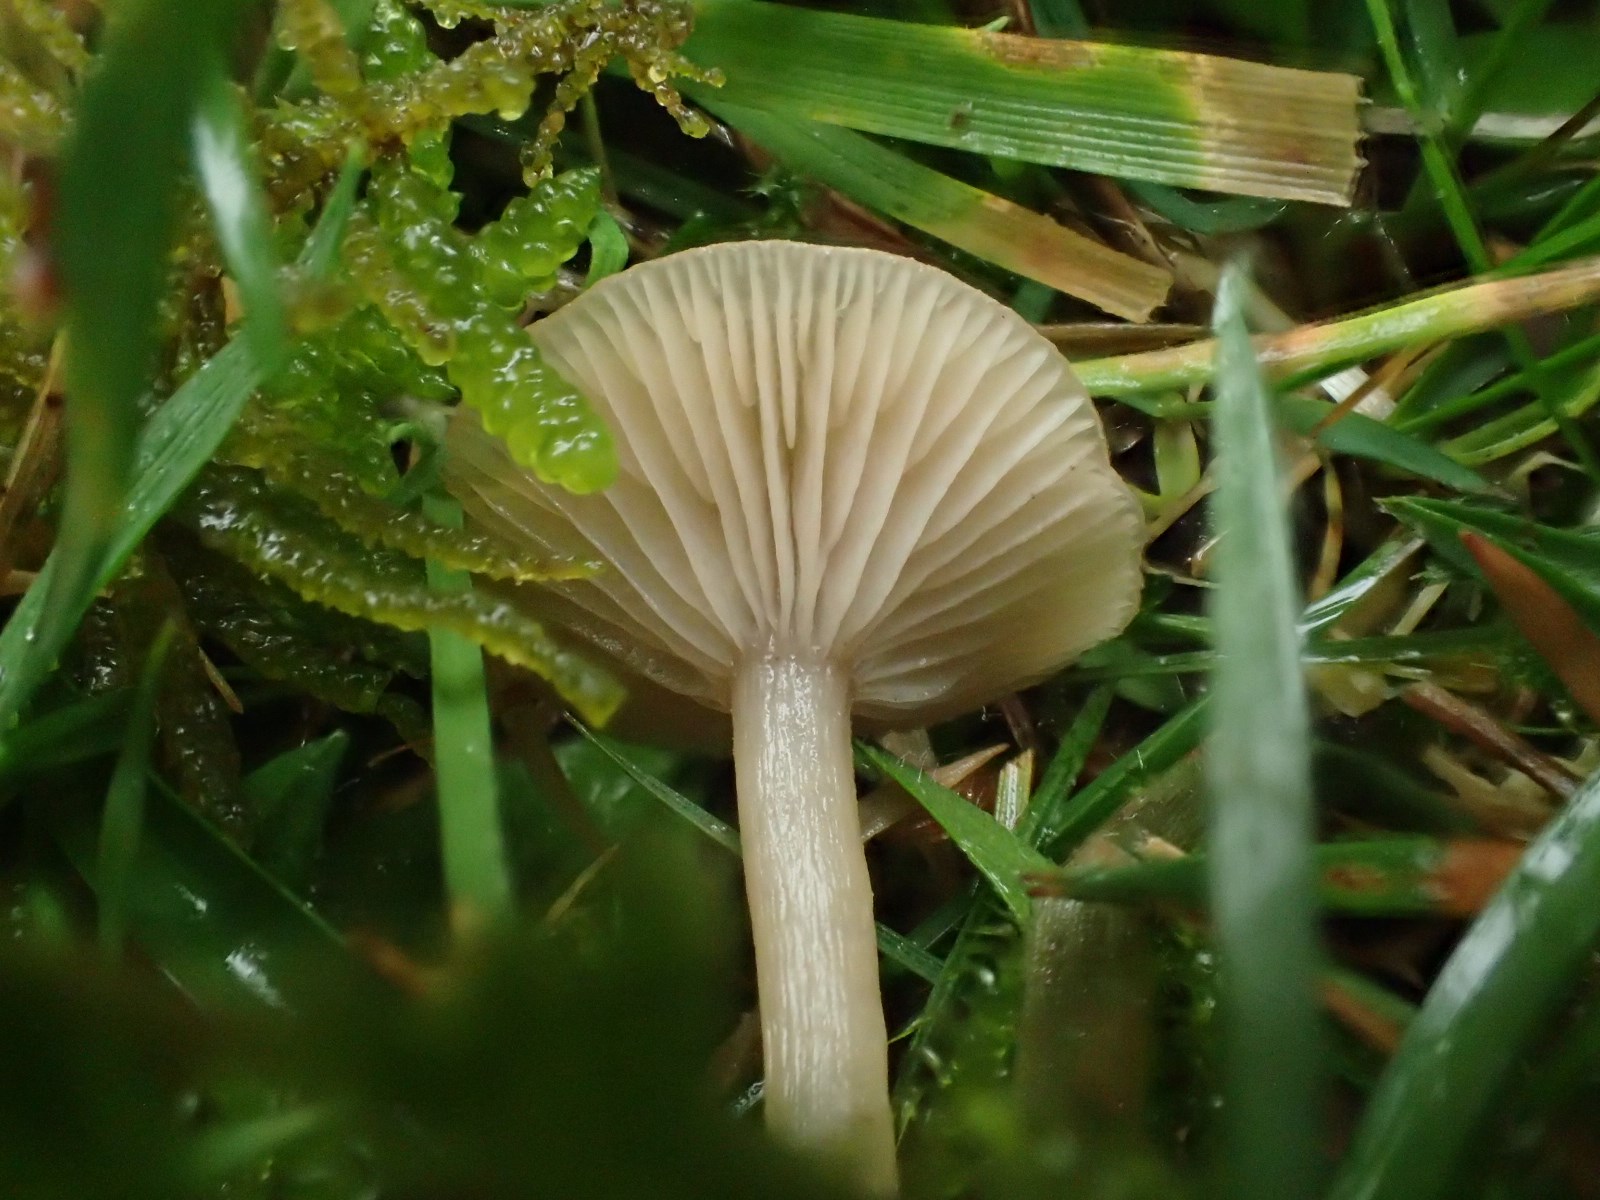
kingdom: Fungi
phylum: Basidiomycota
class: Agaricomycetes
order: Agaricales
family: Tricholomataceae
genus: Clitocybe
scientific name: Clitocybe fragrans
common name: vellugtende tragthat
